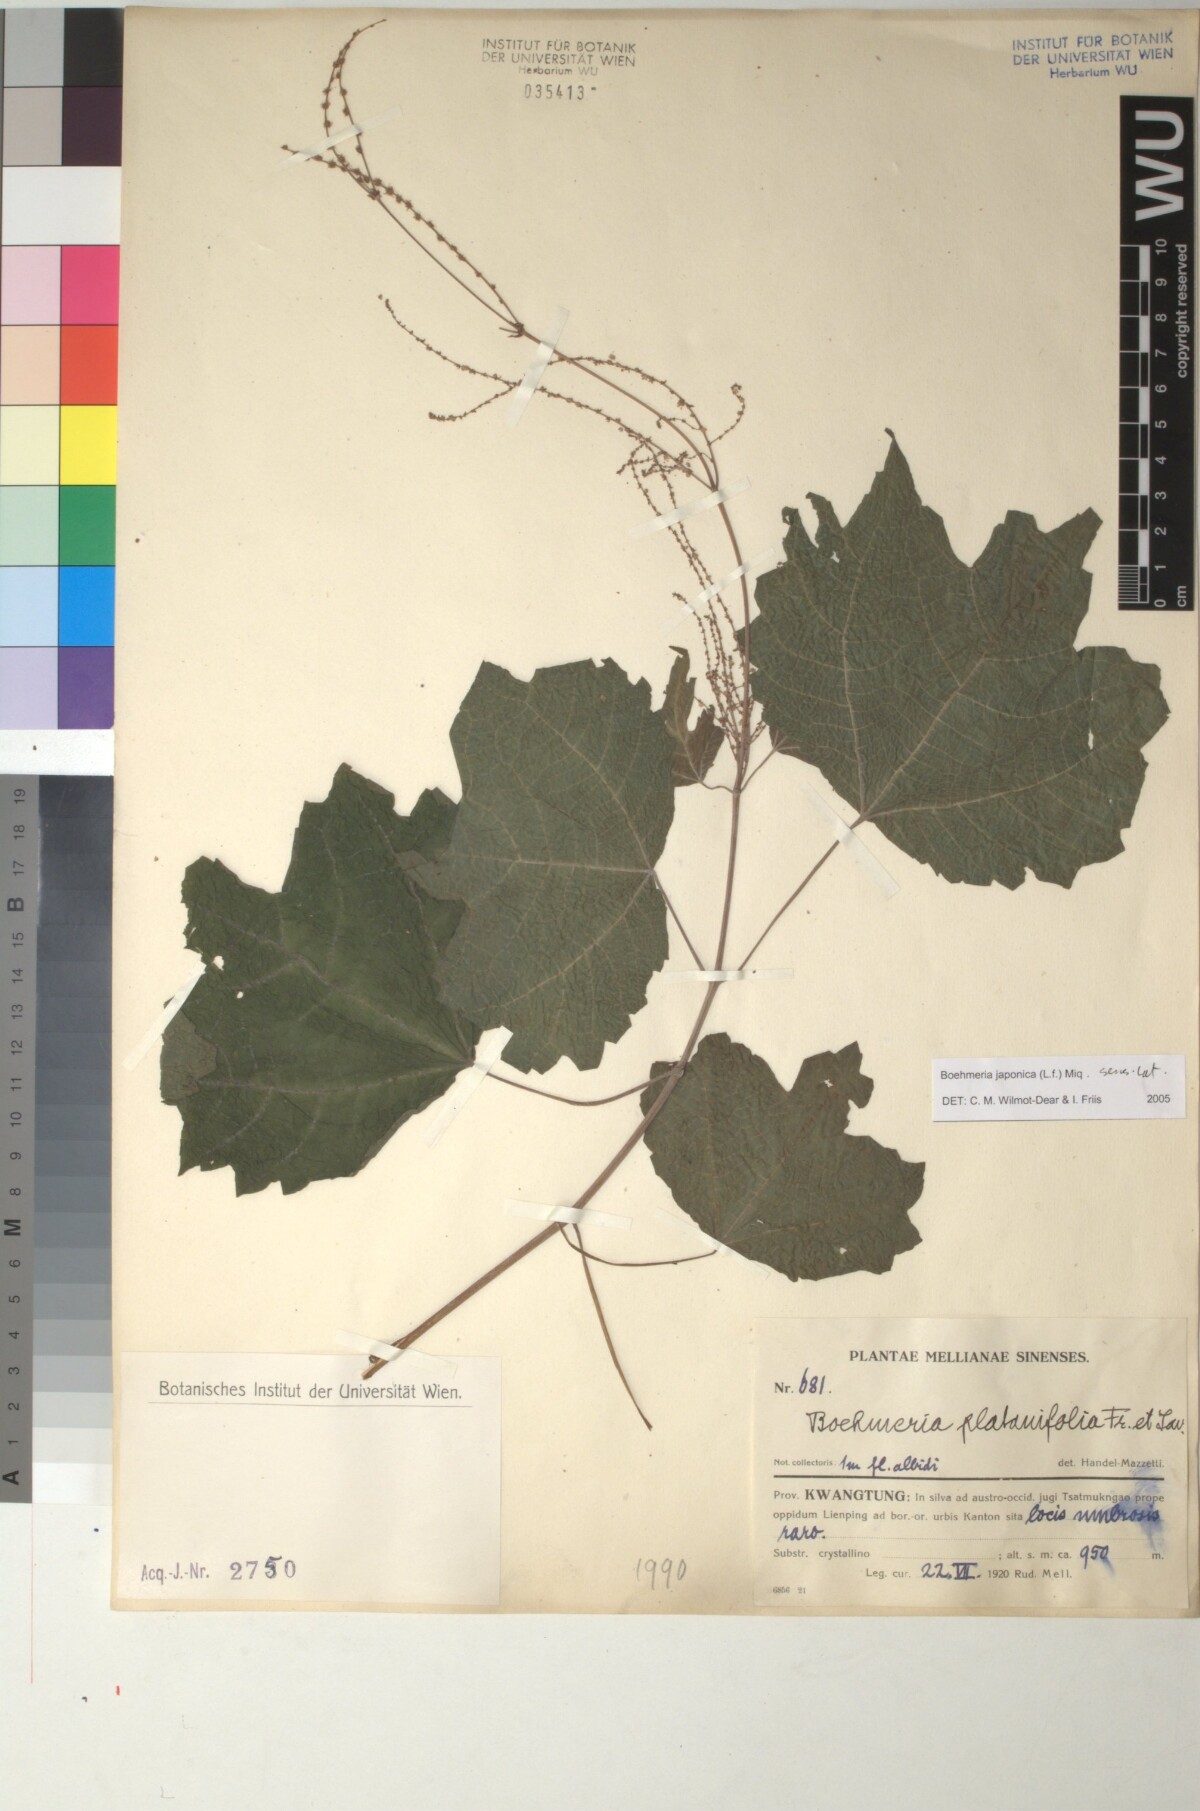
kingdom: Plantae
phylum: Tracheophyta
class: Magnoliopsida
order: Rosales
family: Urticaceae
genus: Boehmeria
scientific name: Boehmeria japonica
